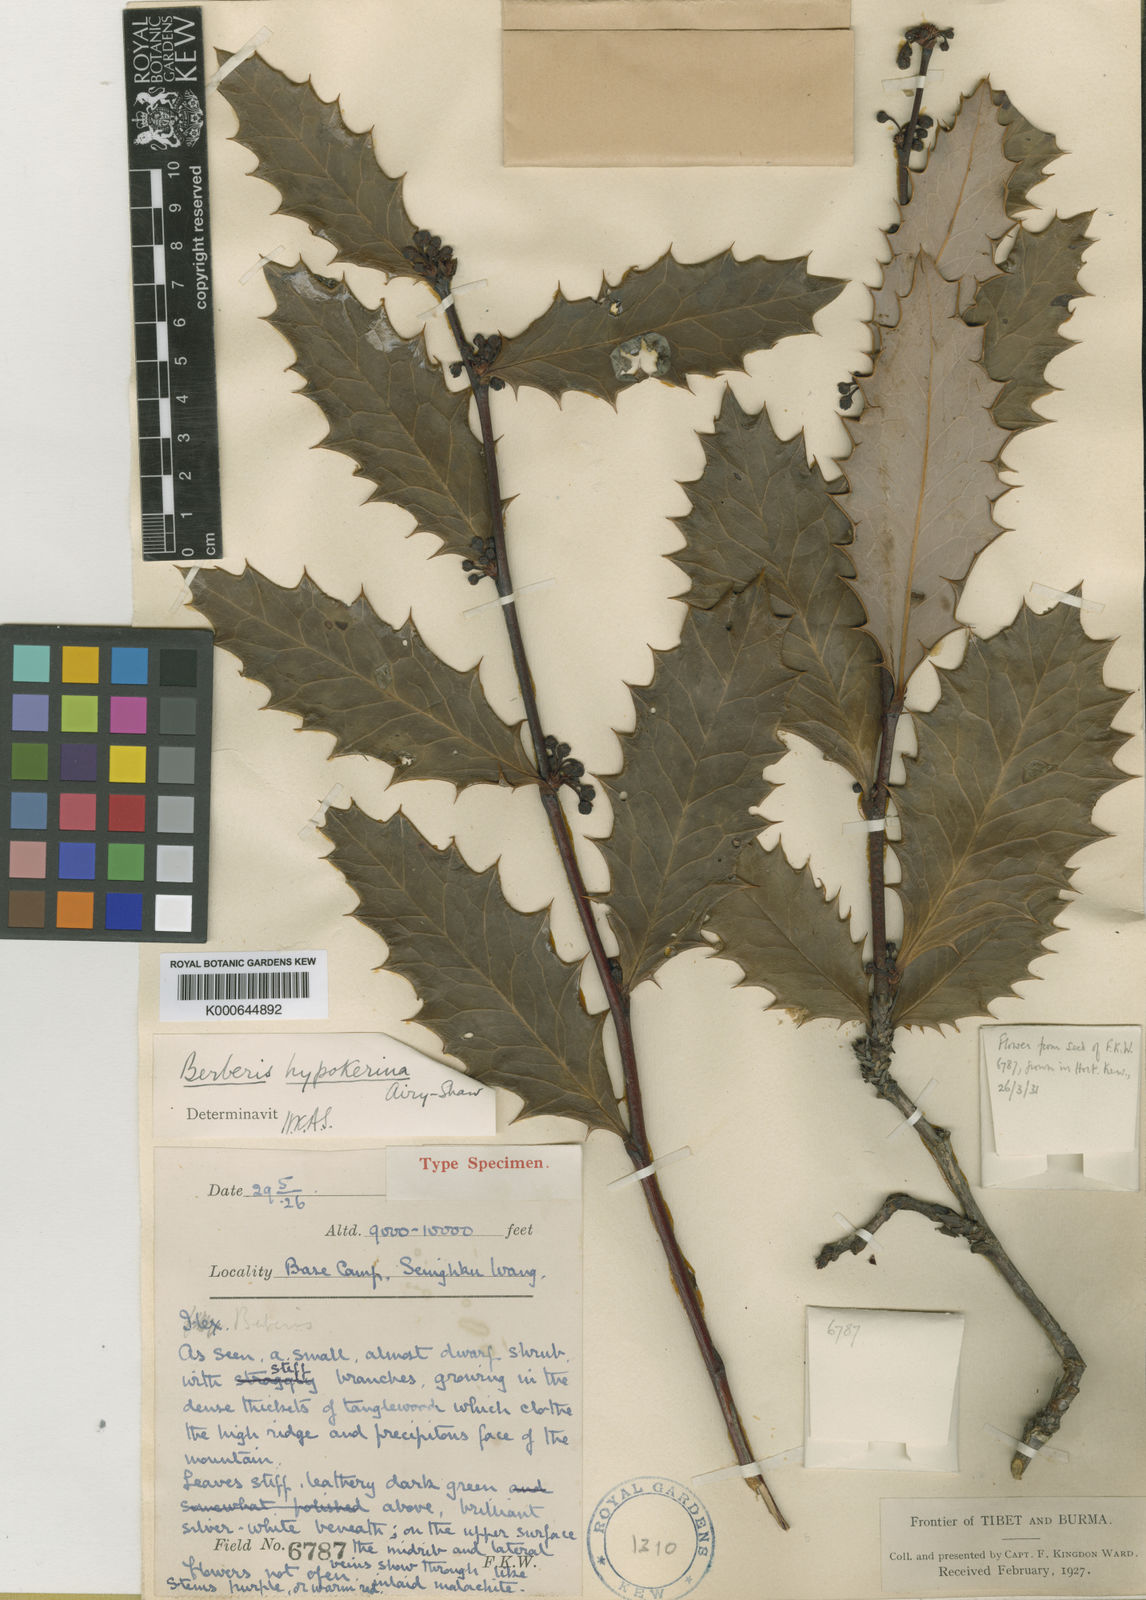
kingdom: Plantae
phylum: Tracheophyta
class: Magnoliopsida
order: Ranunculales
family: Berberidaceae
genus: Berberis
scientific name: Berberis hypokerina
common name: Violet-bead barberry
